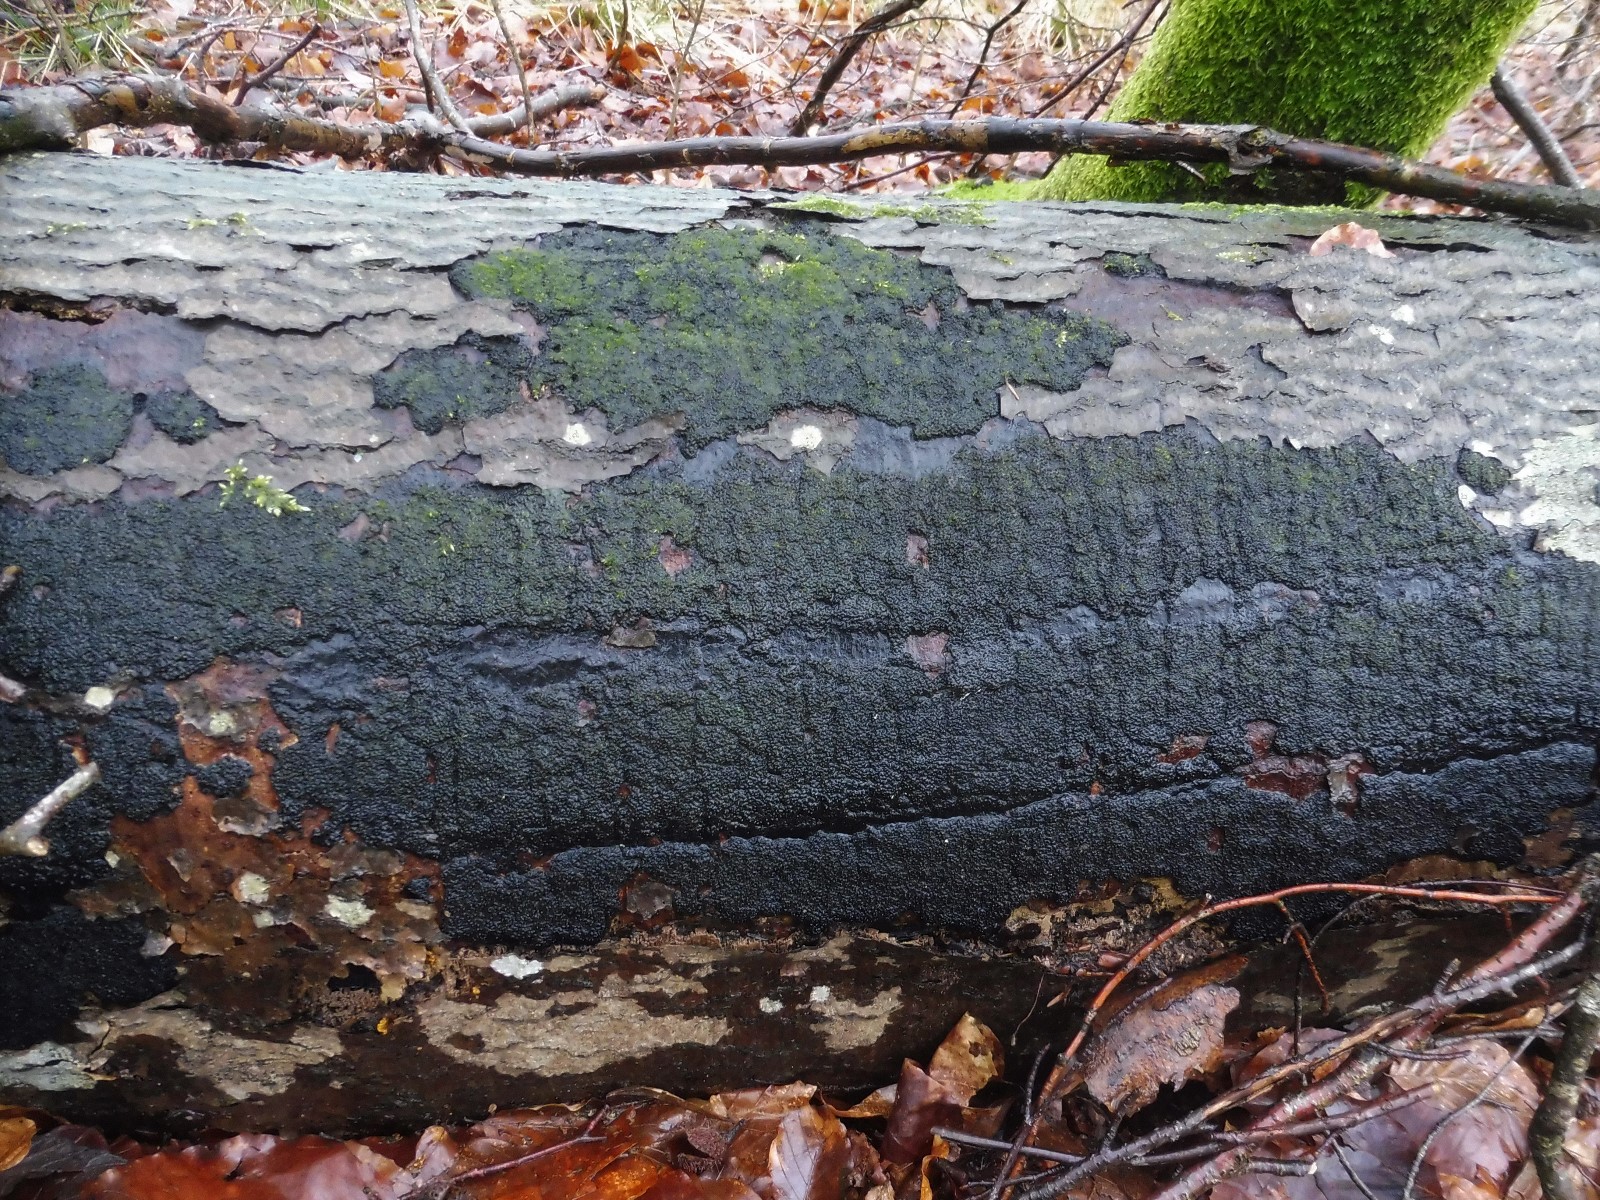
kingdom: Fungi
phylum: Ascomycota
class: Sordariomycetes
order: Xylariales
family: Diatrypaceae
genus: Eutypa
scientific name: Eutypa spinosa
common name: grov kulskorpe
